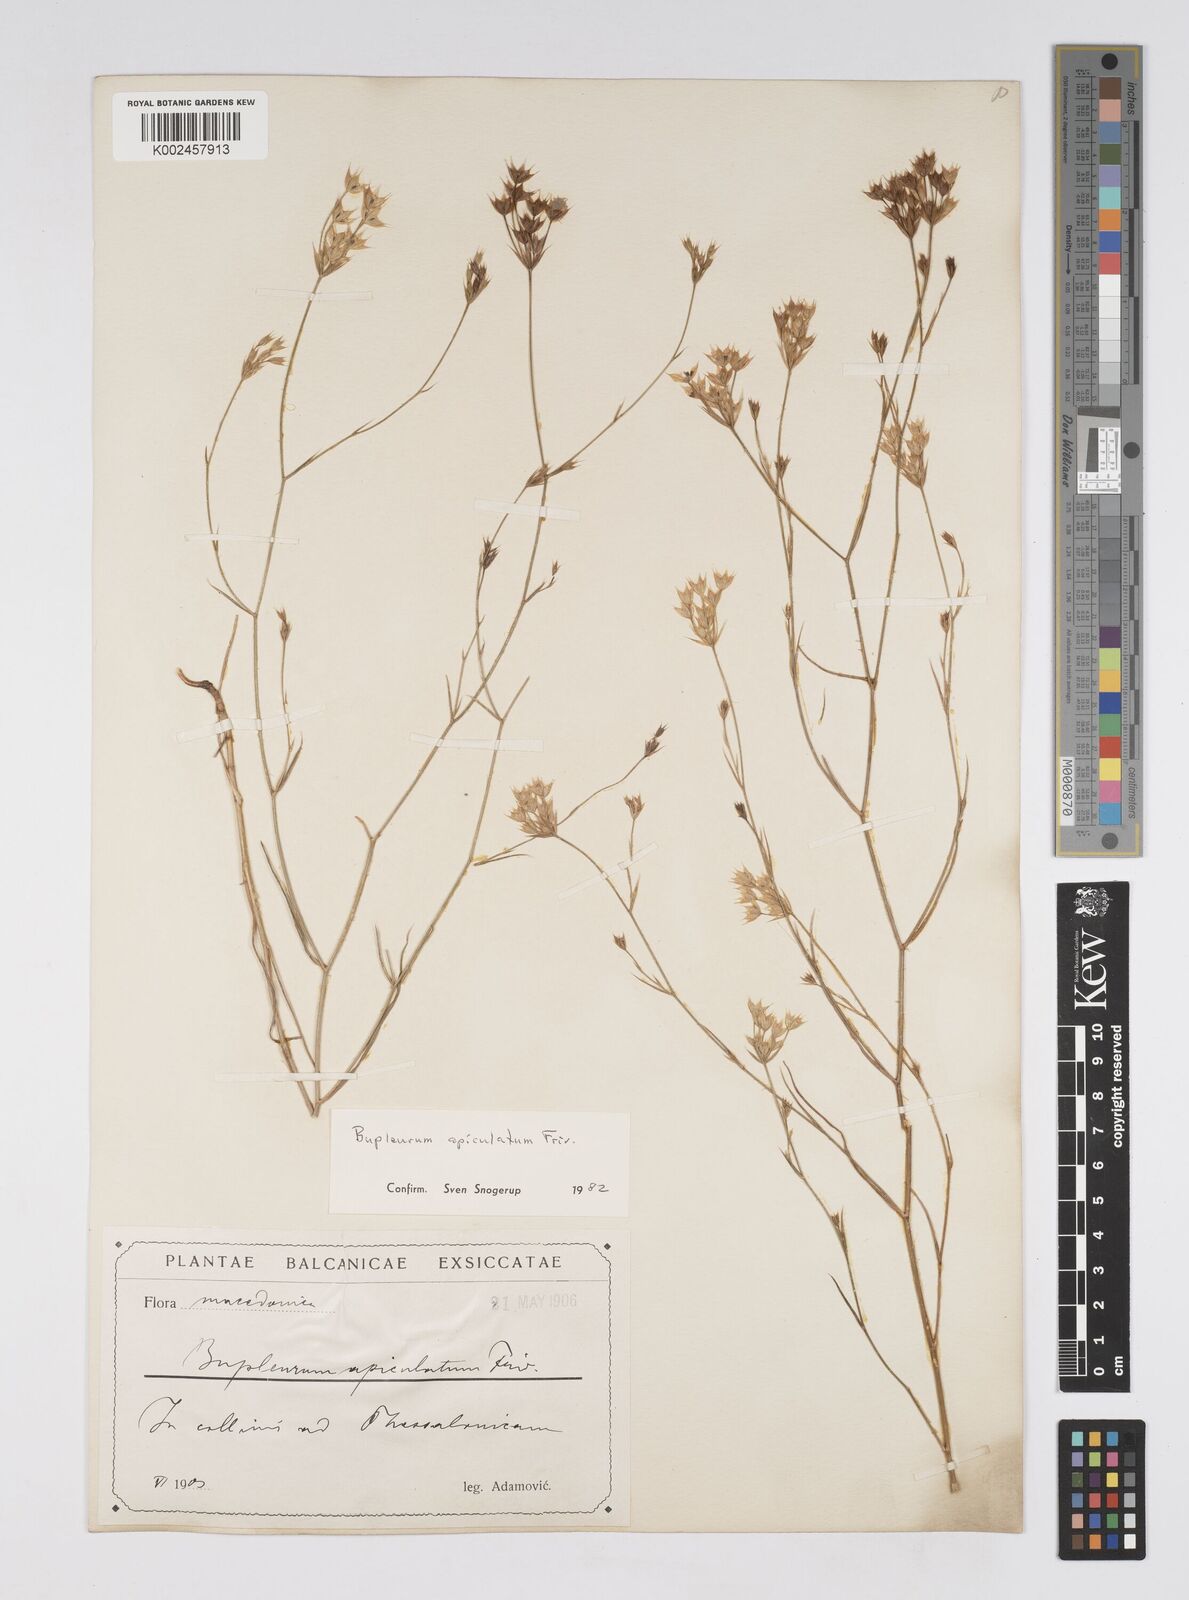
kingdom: Plantae
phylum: Tracheophyta
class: Magnoliopsida
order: Apiales
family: Apiaceae
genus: Bupleurum
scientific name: Bupleurum apiculatum
